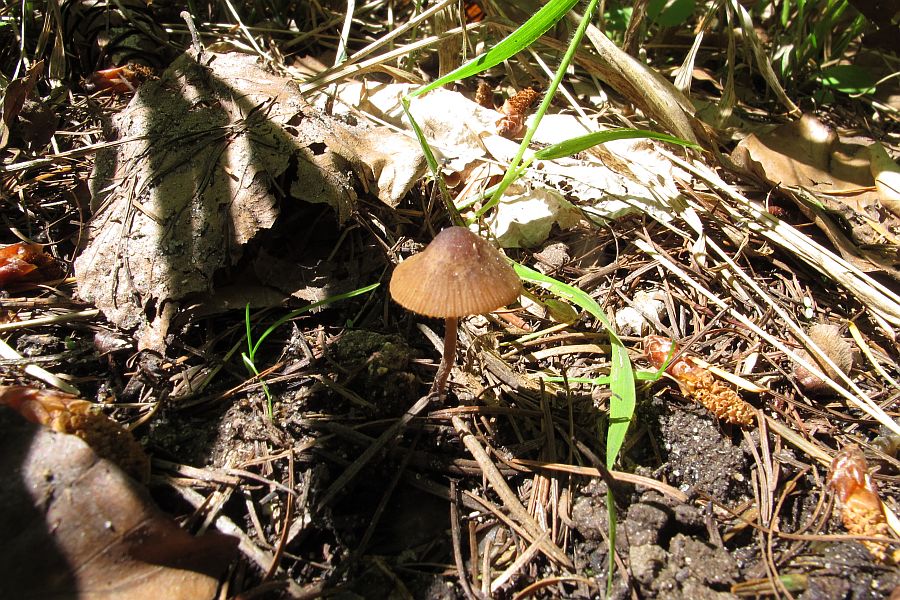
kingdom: Fungi
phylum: Basidiomycota
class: Agaricomycetes
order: Agaricales
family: Bolbitiaceae
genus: Conocybe
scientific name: Conocybe
